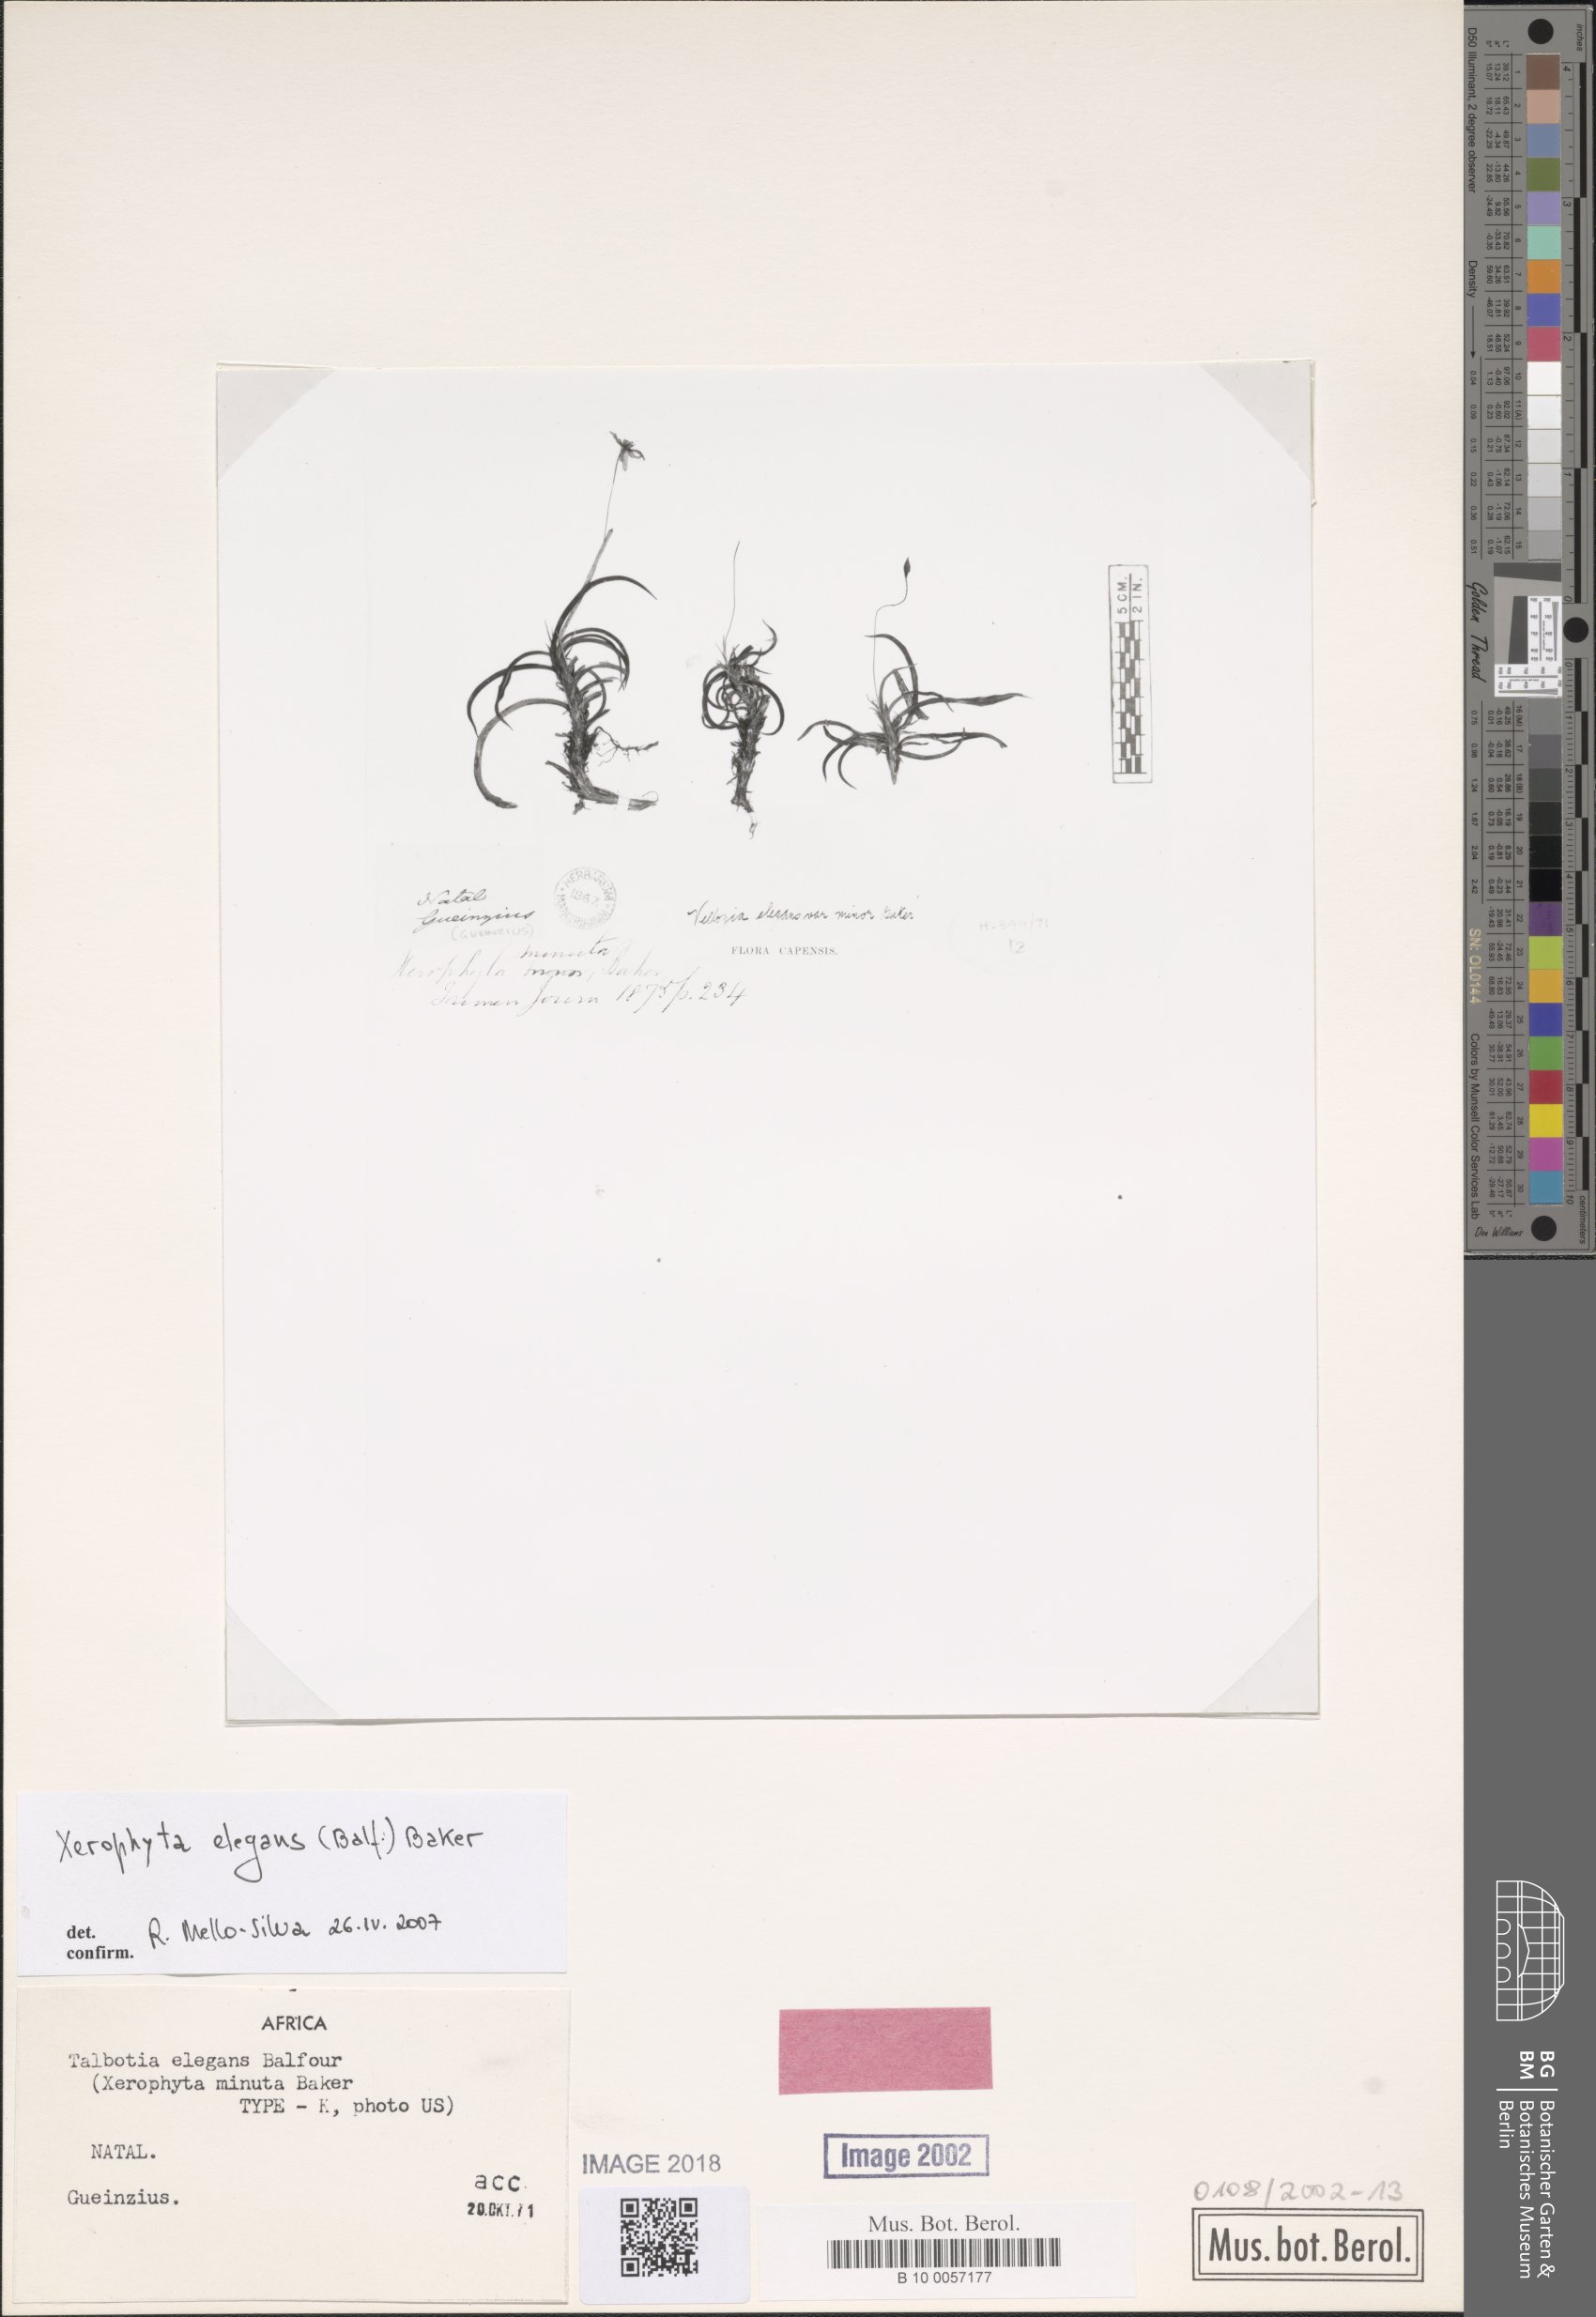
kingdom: Plantae
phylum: Tracheophyta
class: Liliopsida
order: Pandanales
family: Velloziaceae
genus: Xerophyta
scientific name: Xerophyta elegans
